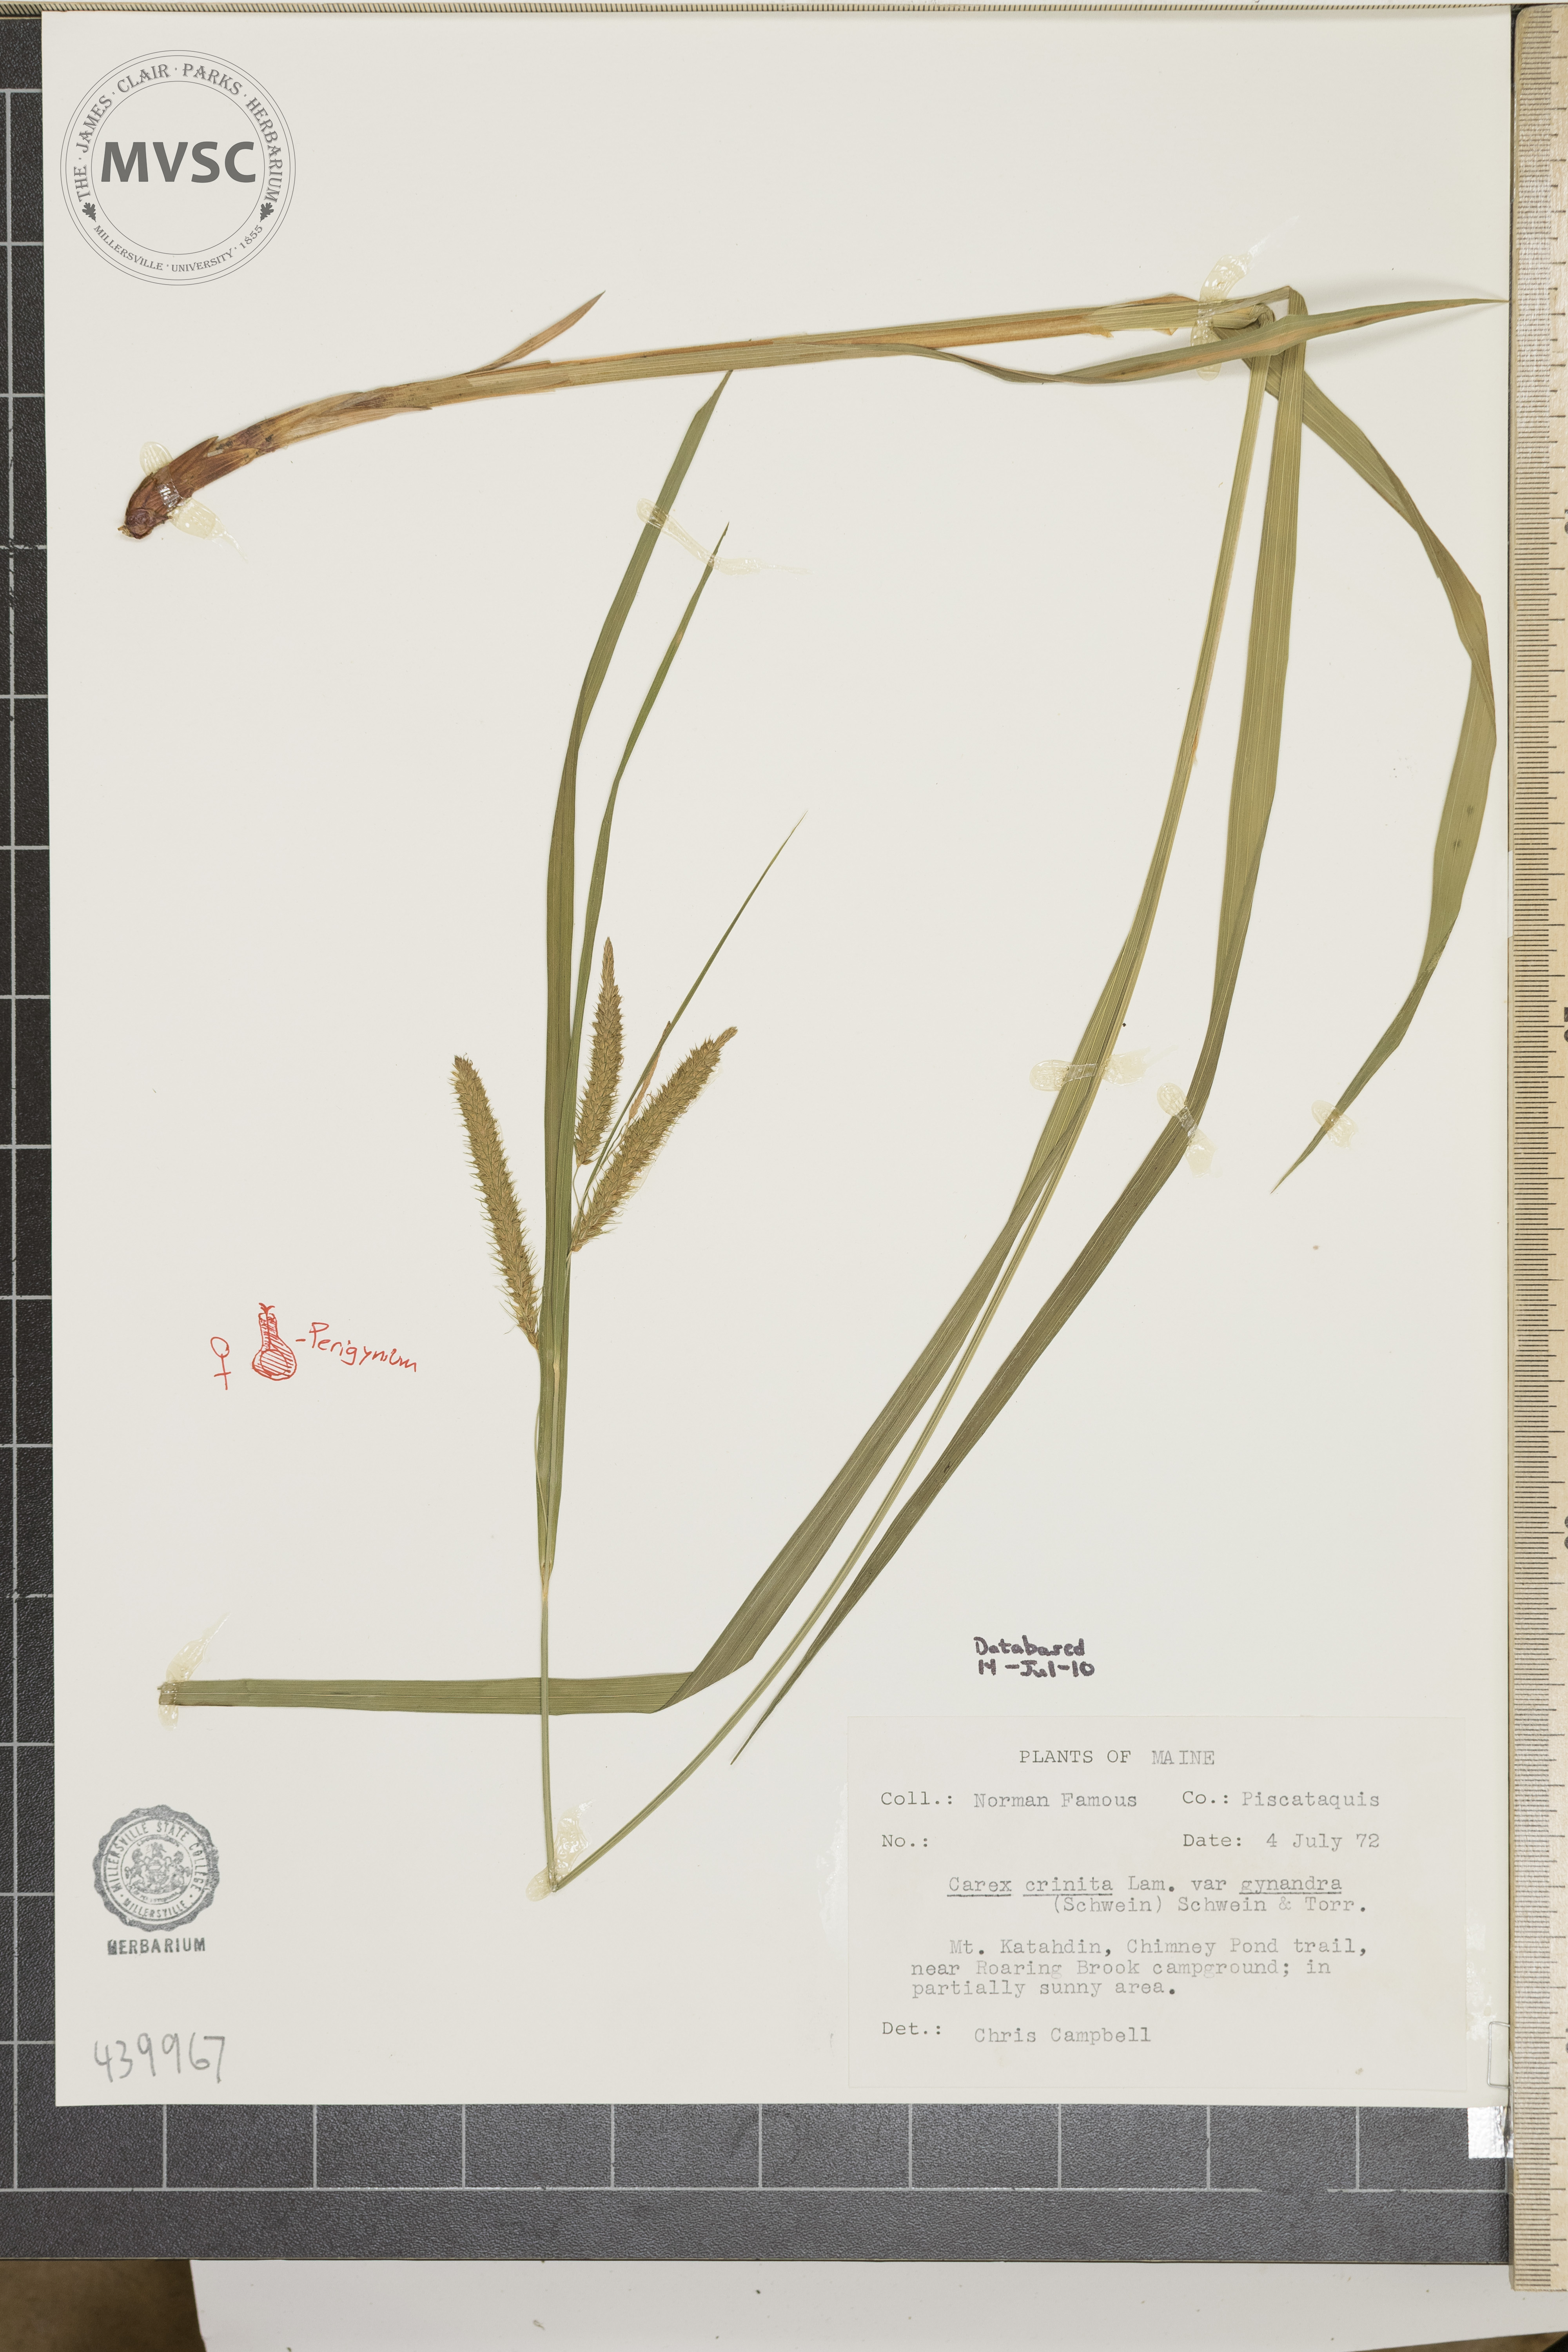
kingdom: Plantae
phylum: Tracheophyta
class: Liliopsida
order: Poales
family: Cyperaceae
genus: Carex
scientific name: Carex gynandra
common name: Nodding sedge
